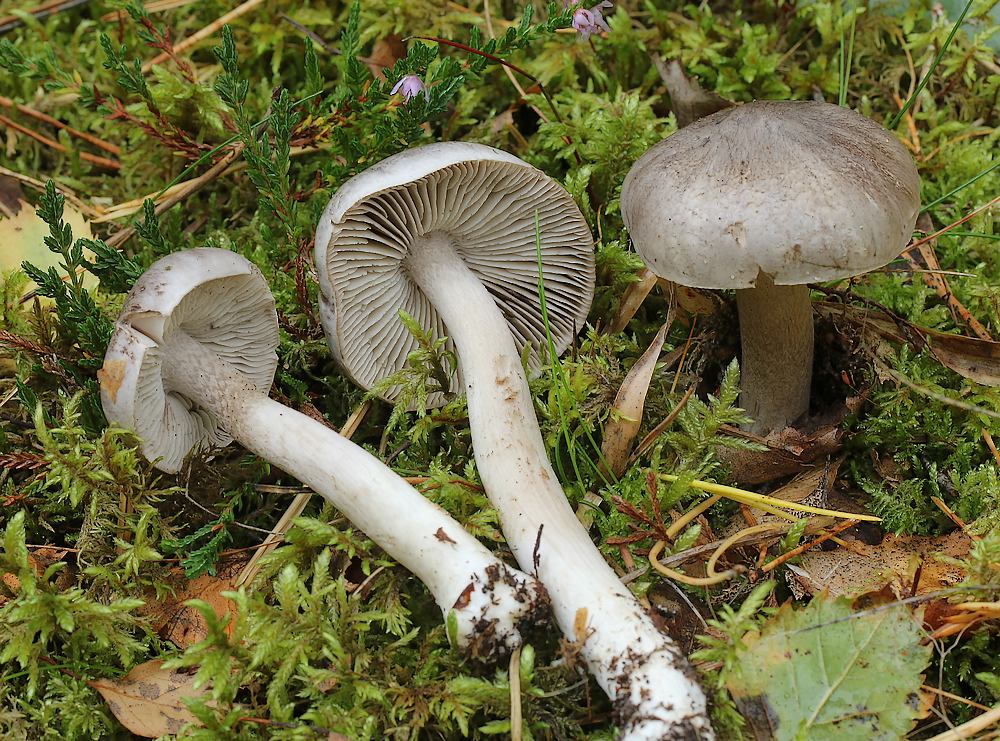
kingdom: Fungi
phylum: Basidiomycota
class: Agaricomycetes
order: Agaricales
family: Tricholomataceae
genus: Tricholoma
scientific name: Tricholoma virgatum
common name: nålestribet ridderhat
